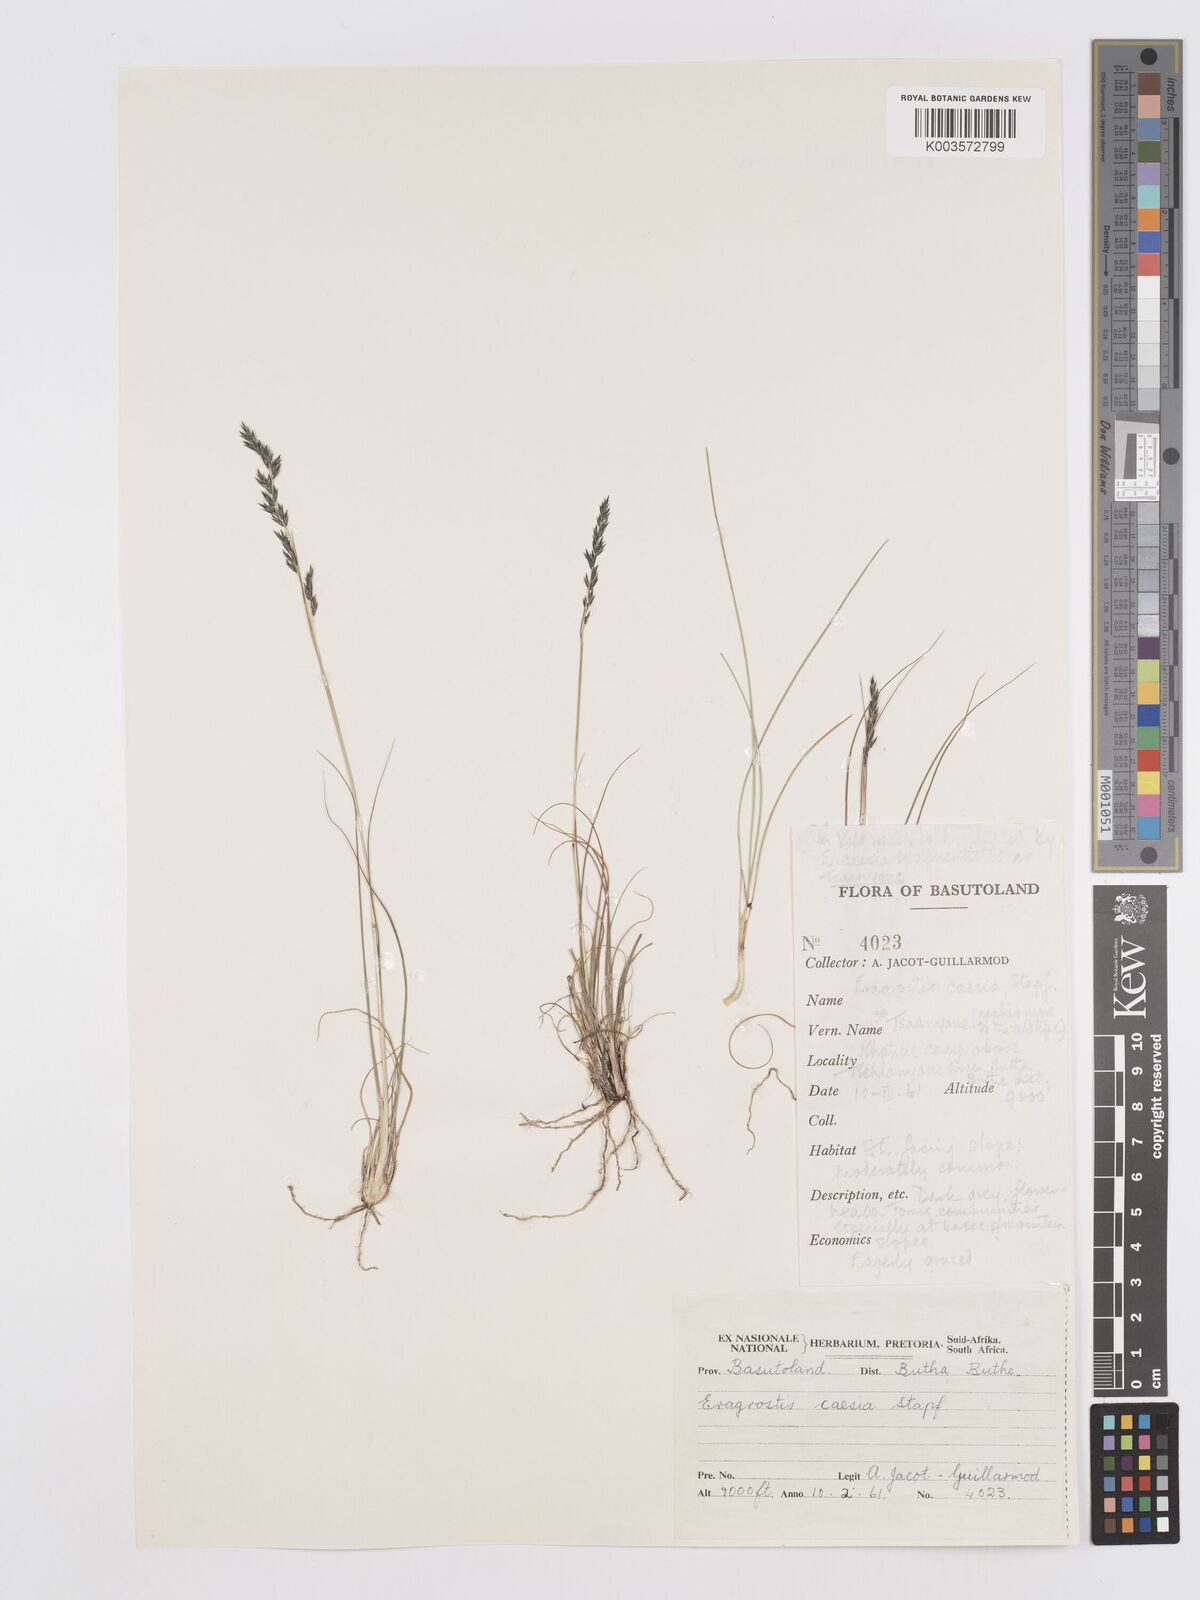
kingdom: Plantae
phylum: Tracheophyta
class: Liliopsida
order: Poales
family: Poaceae
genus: Eragrostis
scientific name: Eragrostis caesia
